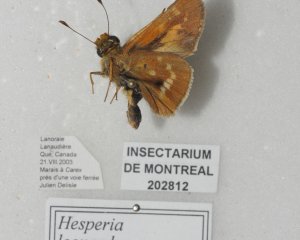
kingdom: Animalia
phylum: Arthropoda
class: Insecta
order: Lepidoptera
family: Hesperiidae
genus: Hesperia
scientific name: Hesperia leonardus
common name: Leonard's Skipper
